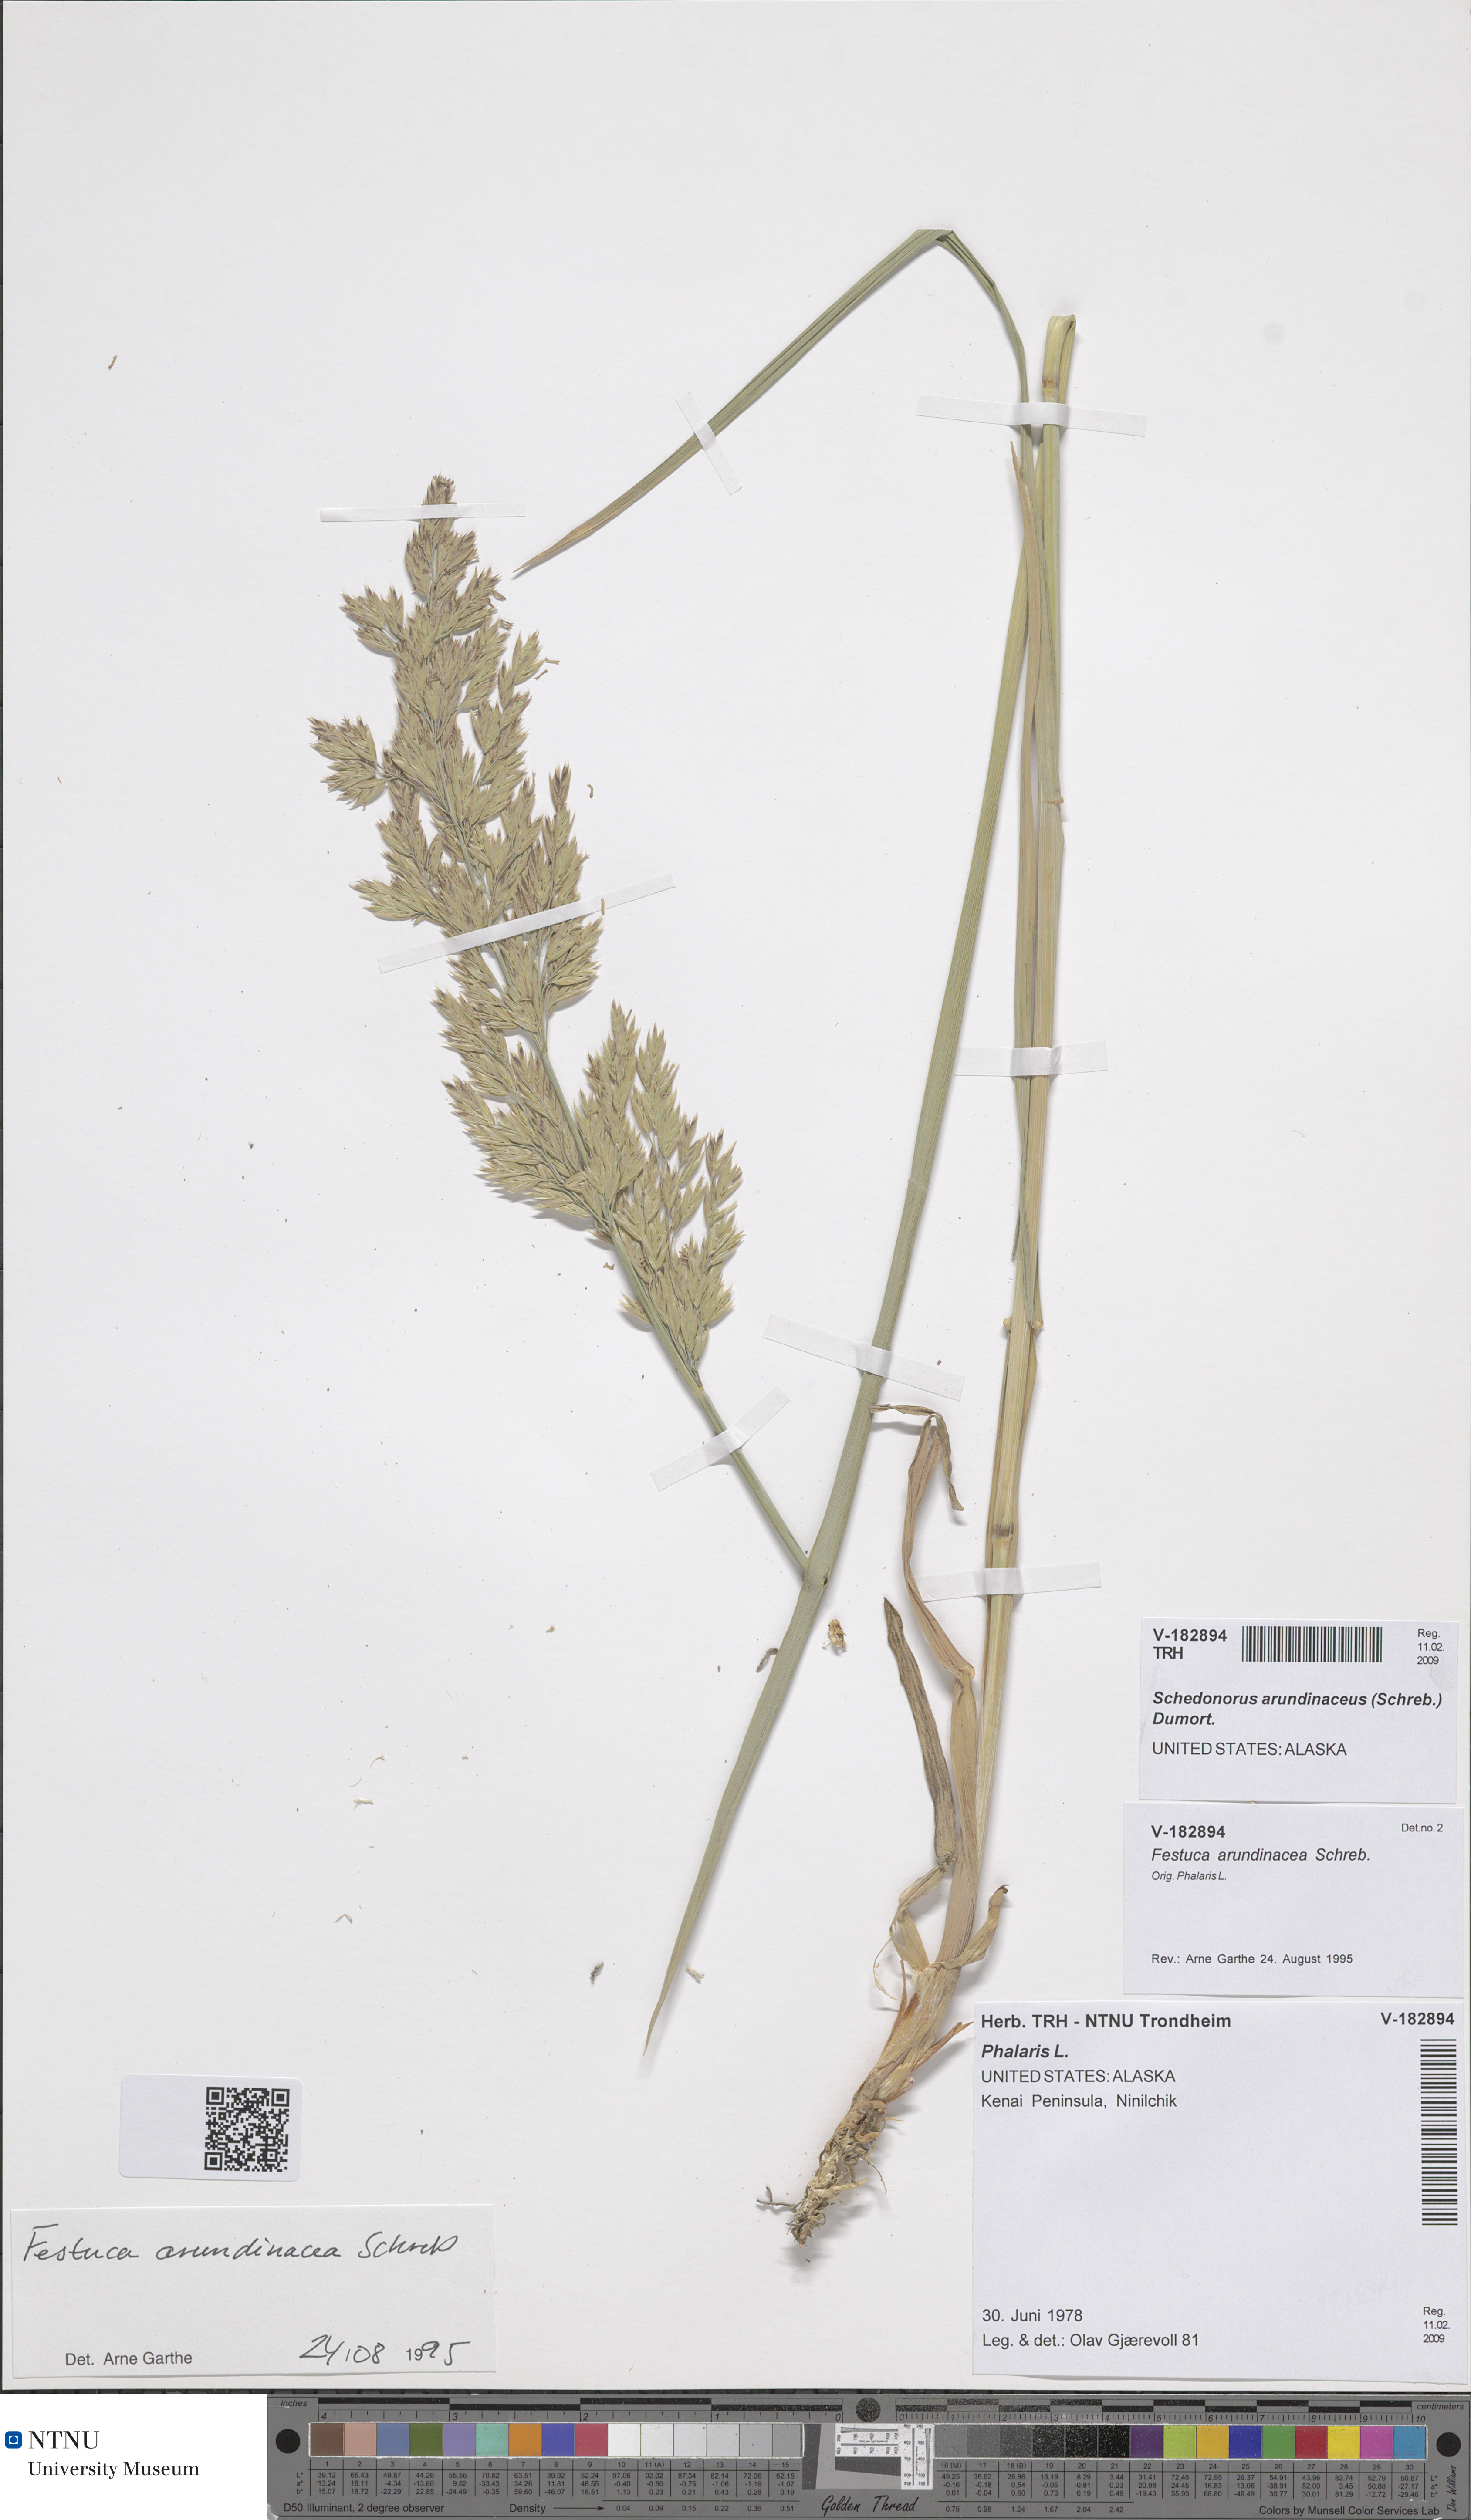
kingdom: Plantae
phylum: Tracheophyta
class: Liliopsida
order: Poales
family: Poaceae
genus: Lolium
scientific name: Lolium arundinaceum
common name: Reed fescue
